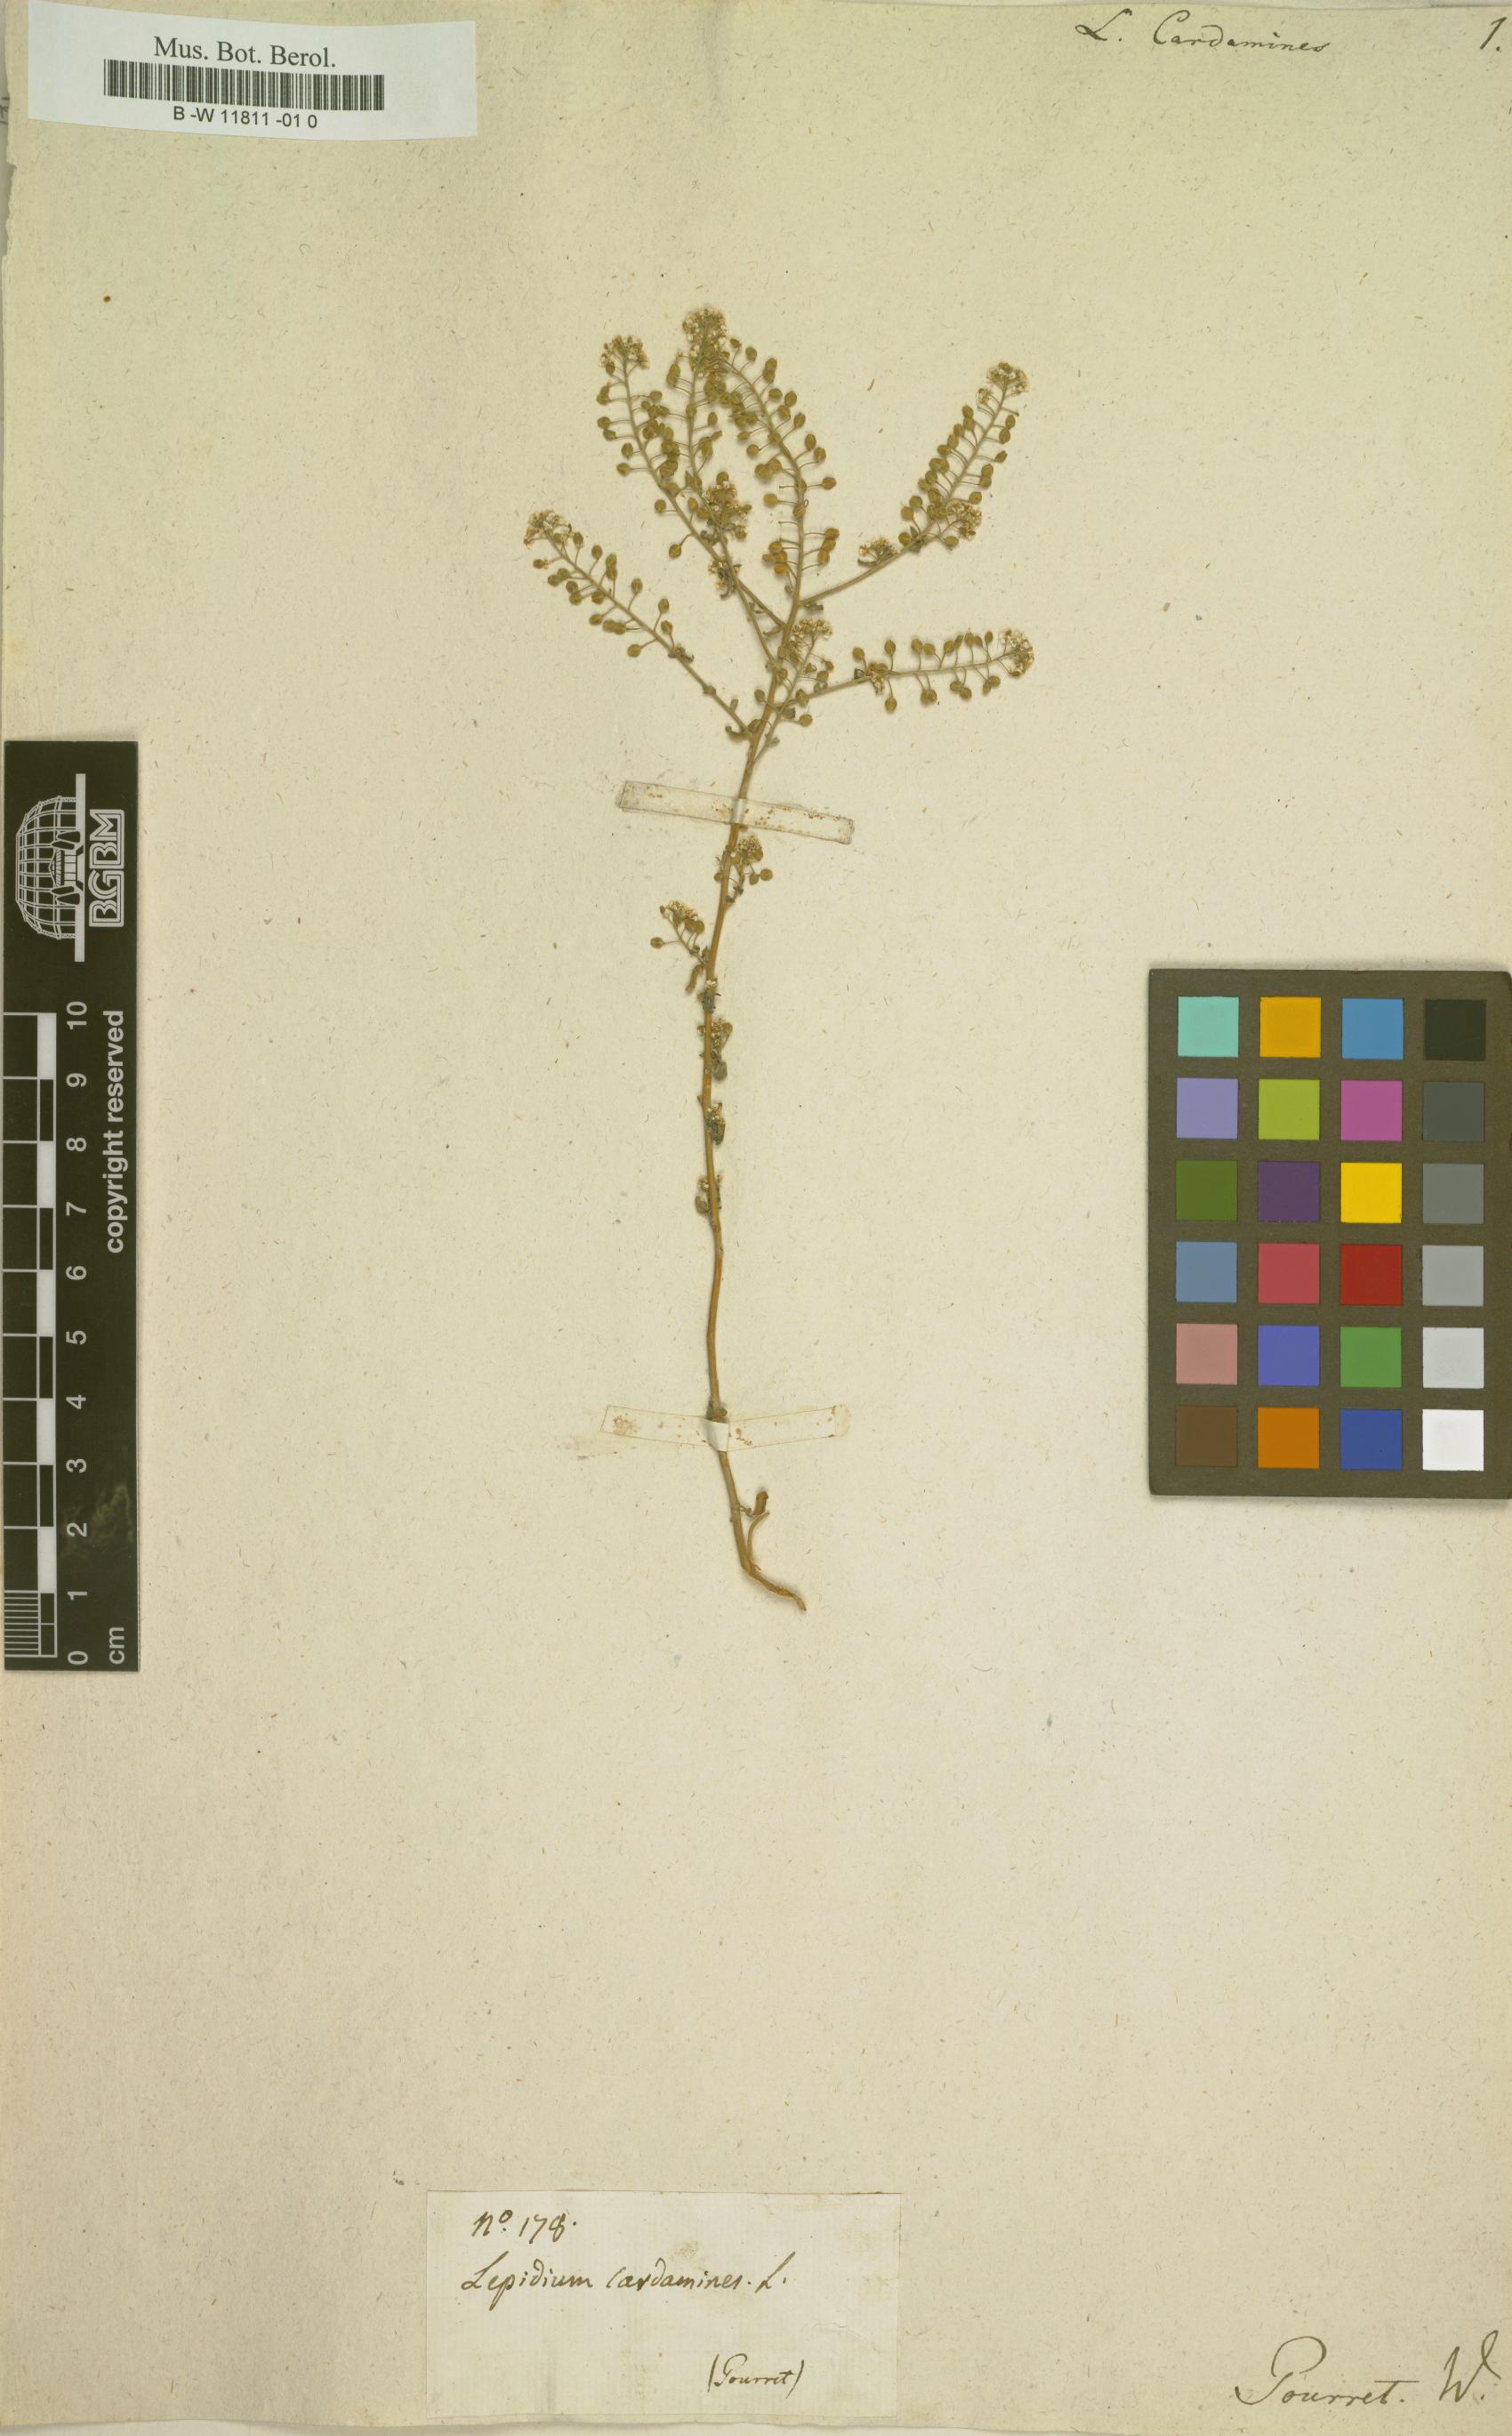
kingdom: Plantae
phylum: Tracheophyta
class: Magnoliopsida
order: Brassicales
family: Brassicaceae
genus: Lepidium
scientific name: Lepidium cardamine
